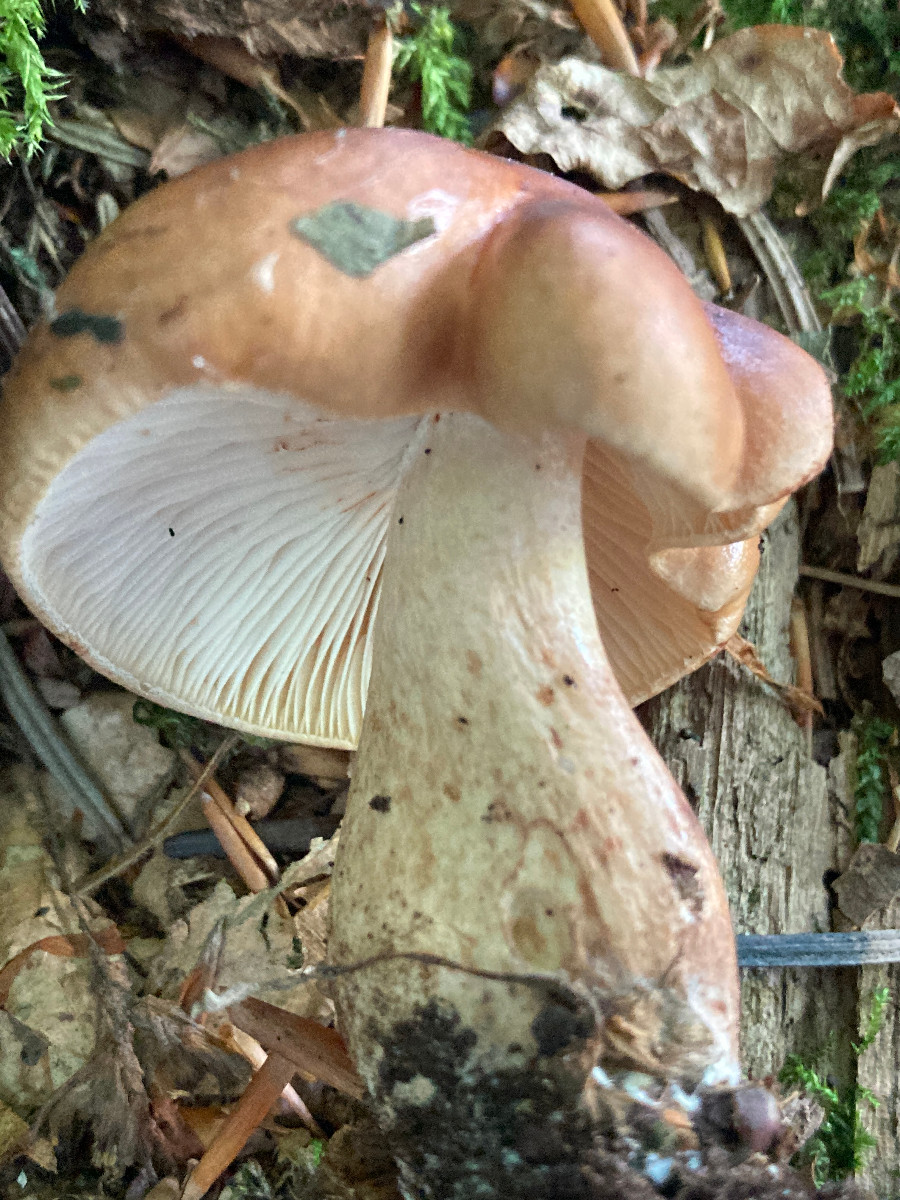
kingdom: Fungi
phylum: Basidiomycota
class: Agaricomycetes
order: Agaricales
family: Tricholomataceae
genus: Tricholoma
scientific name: Tricholoma ustale
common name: sveden ridderhat
